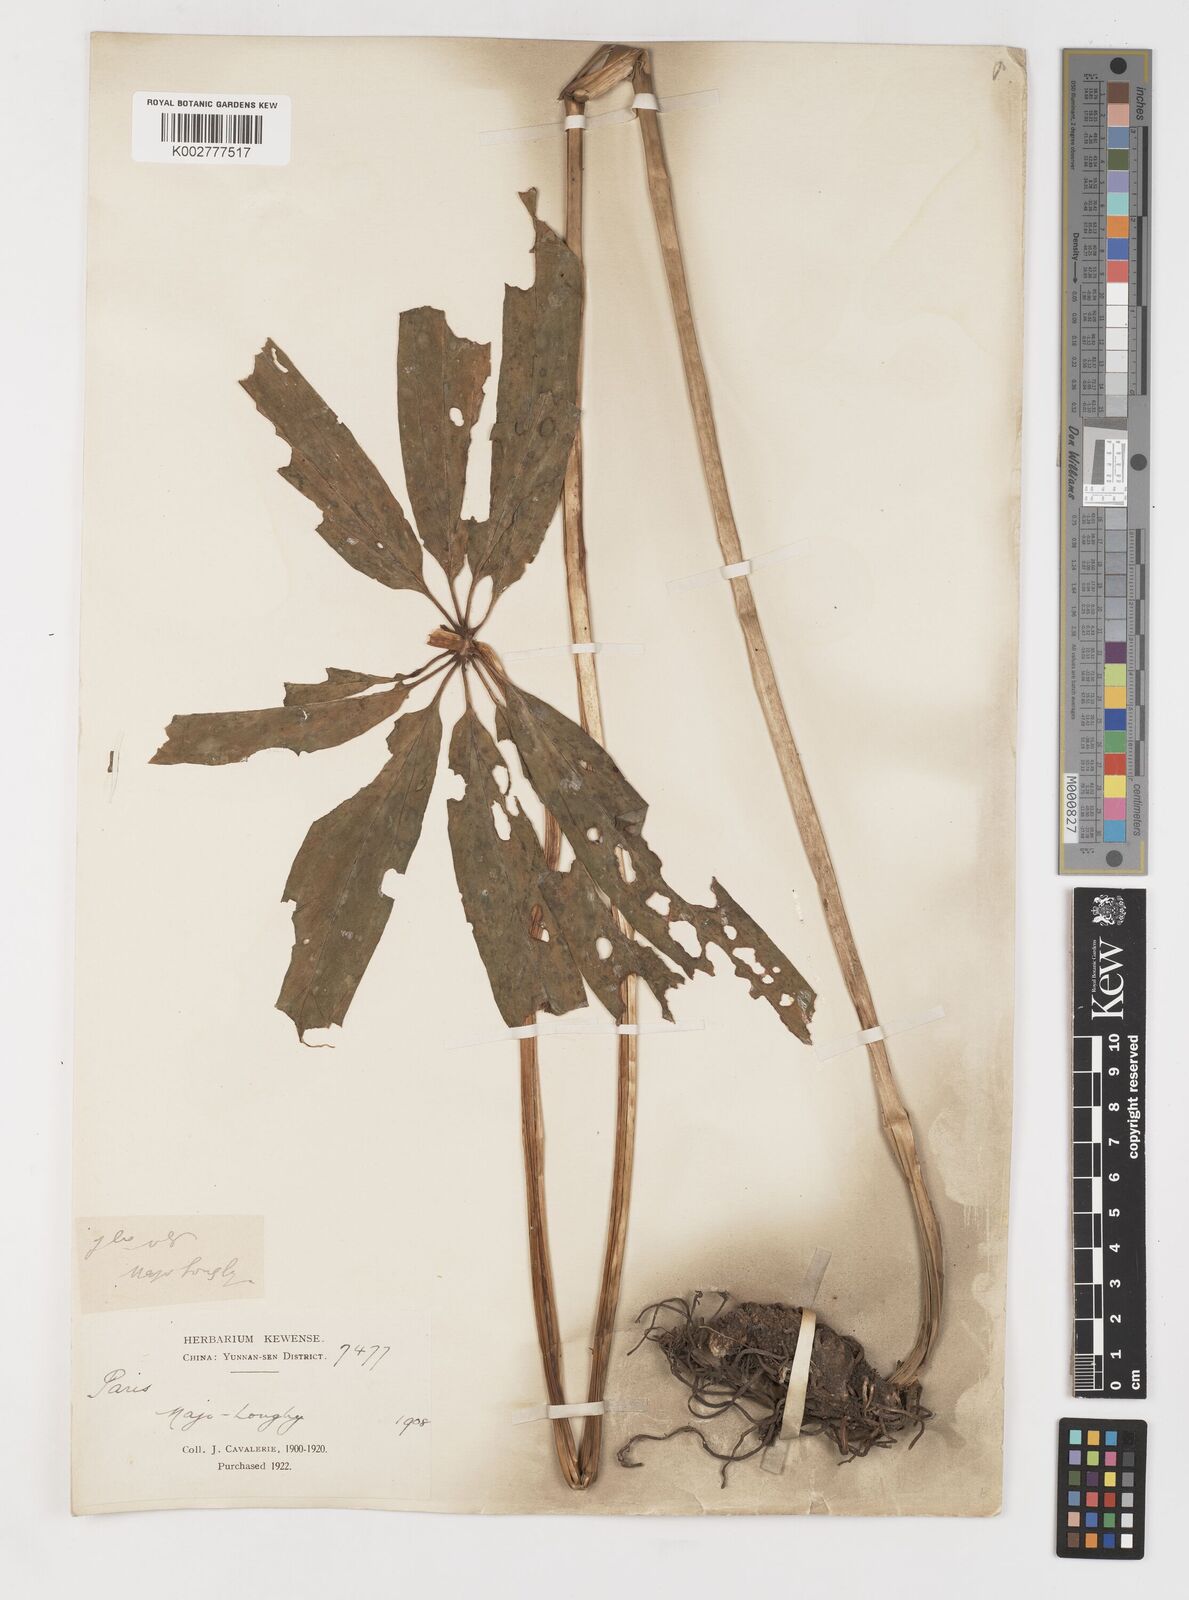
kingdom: Plantae
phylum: Tracheophyta
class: Liliopsida
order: Liliales
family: Melanthiaceae
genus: Paris
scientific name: Paris delavayi
